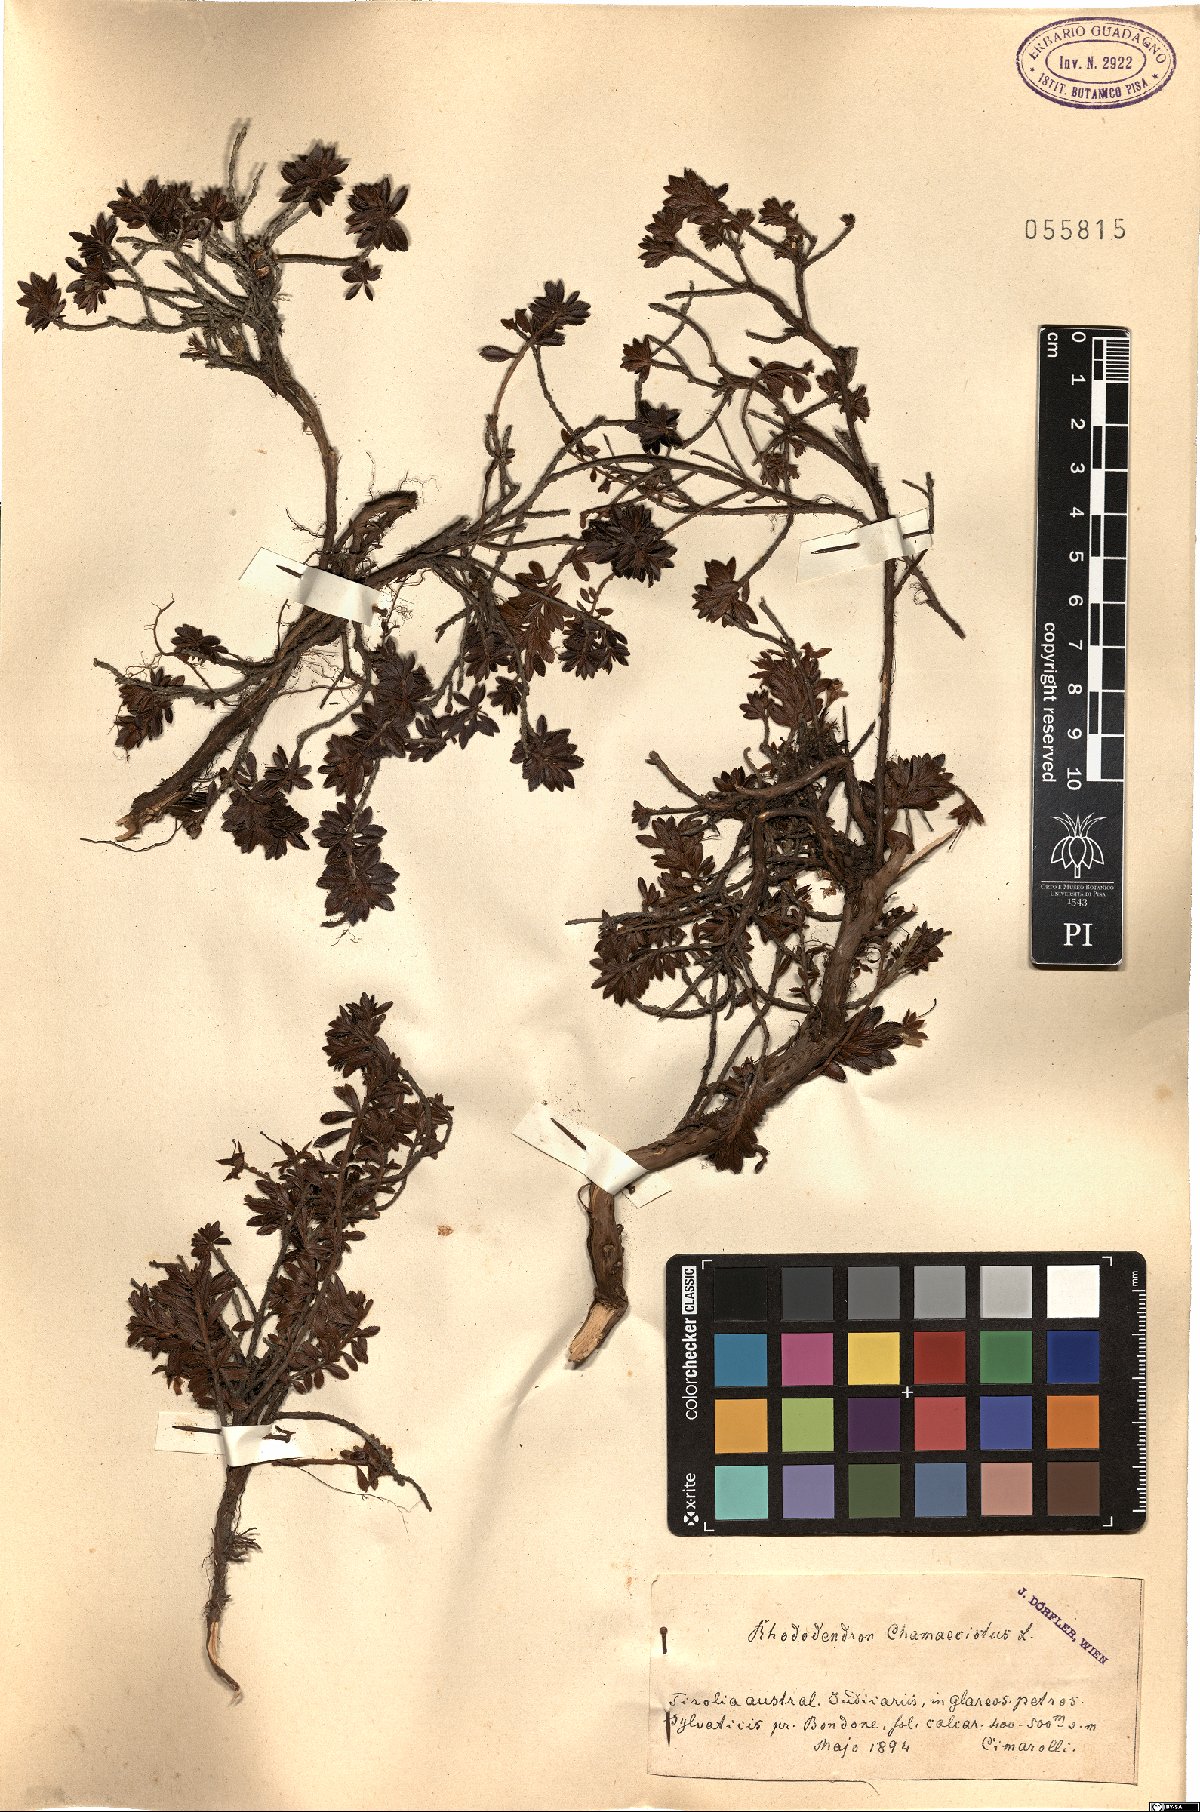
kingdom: Plantae
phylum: Tracheophyta
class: Magnoliopsida
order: Ericales
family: Ericaceae
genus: Rhododendron
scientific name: Rhododendron redowskianum
